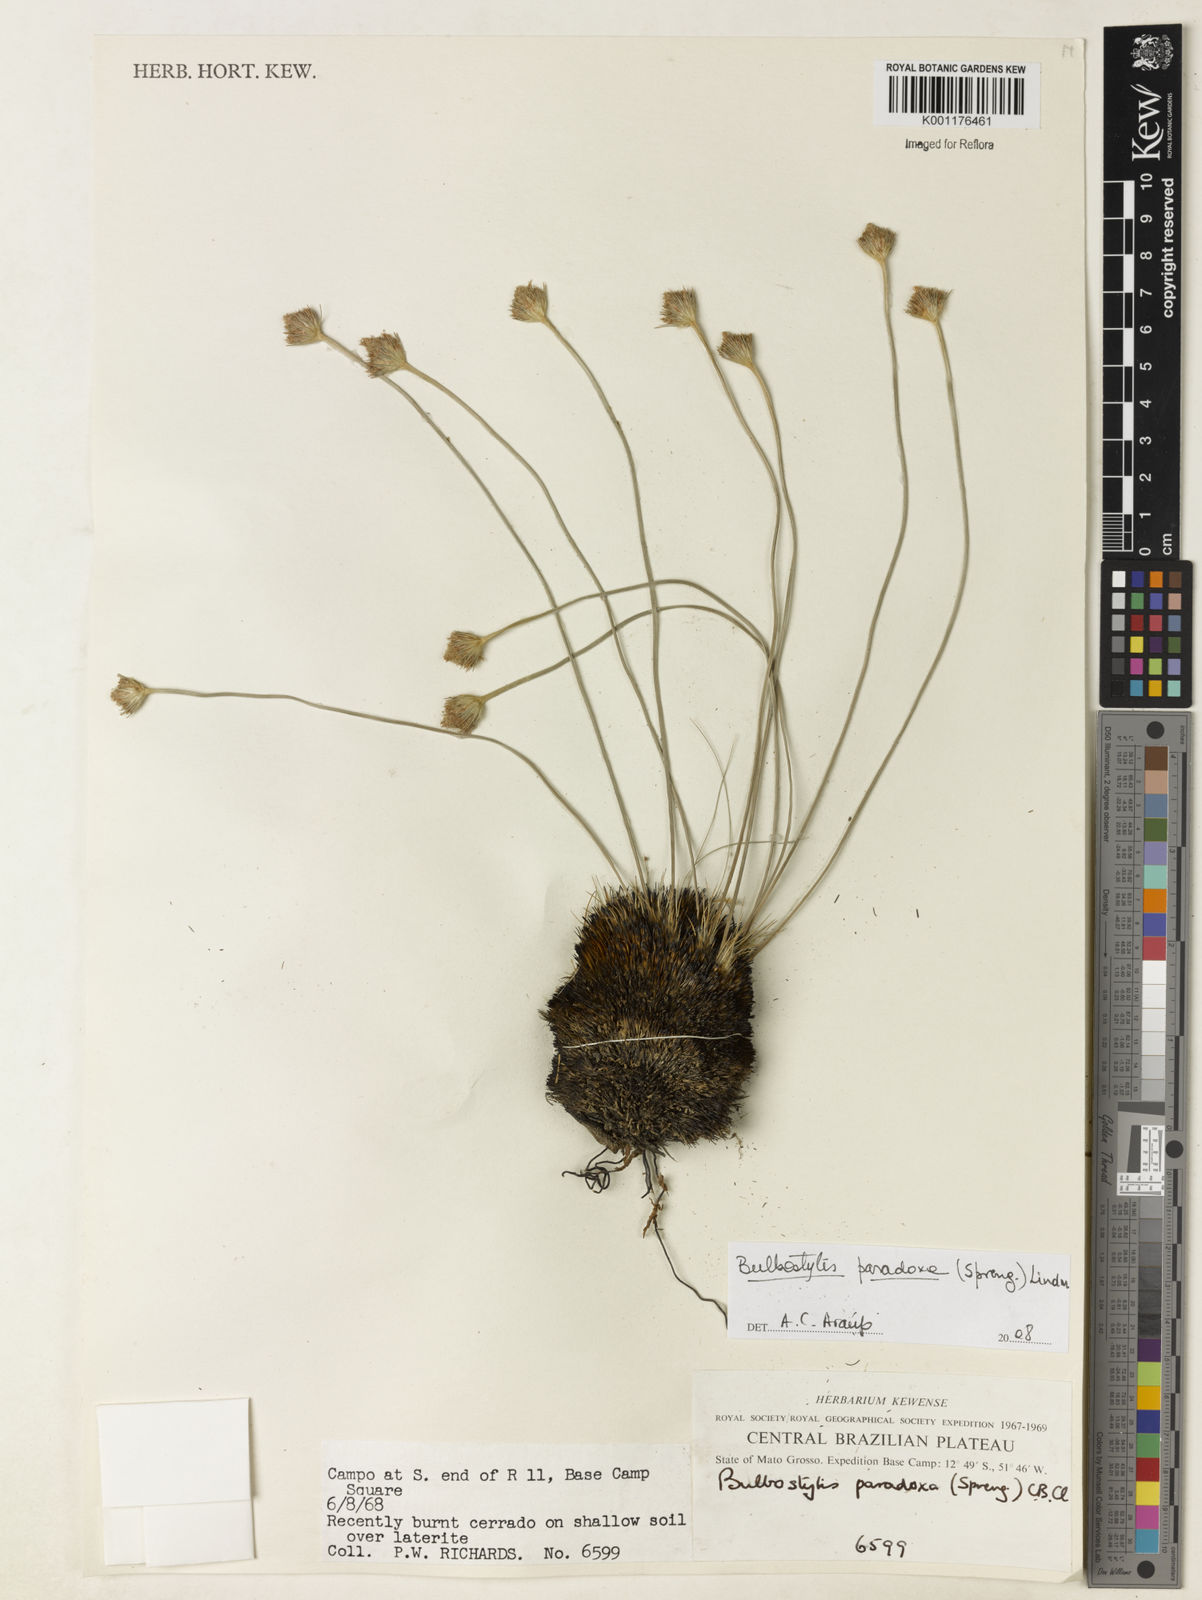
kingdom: Plantae
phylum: Tracheophyta
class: Liliopsida
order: Poales
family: Cyperaceae
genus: Bulbostylis
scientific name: Bulbostylis paradoxa
